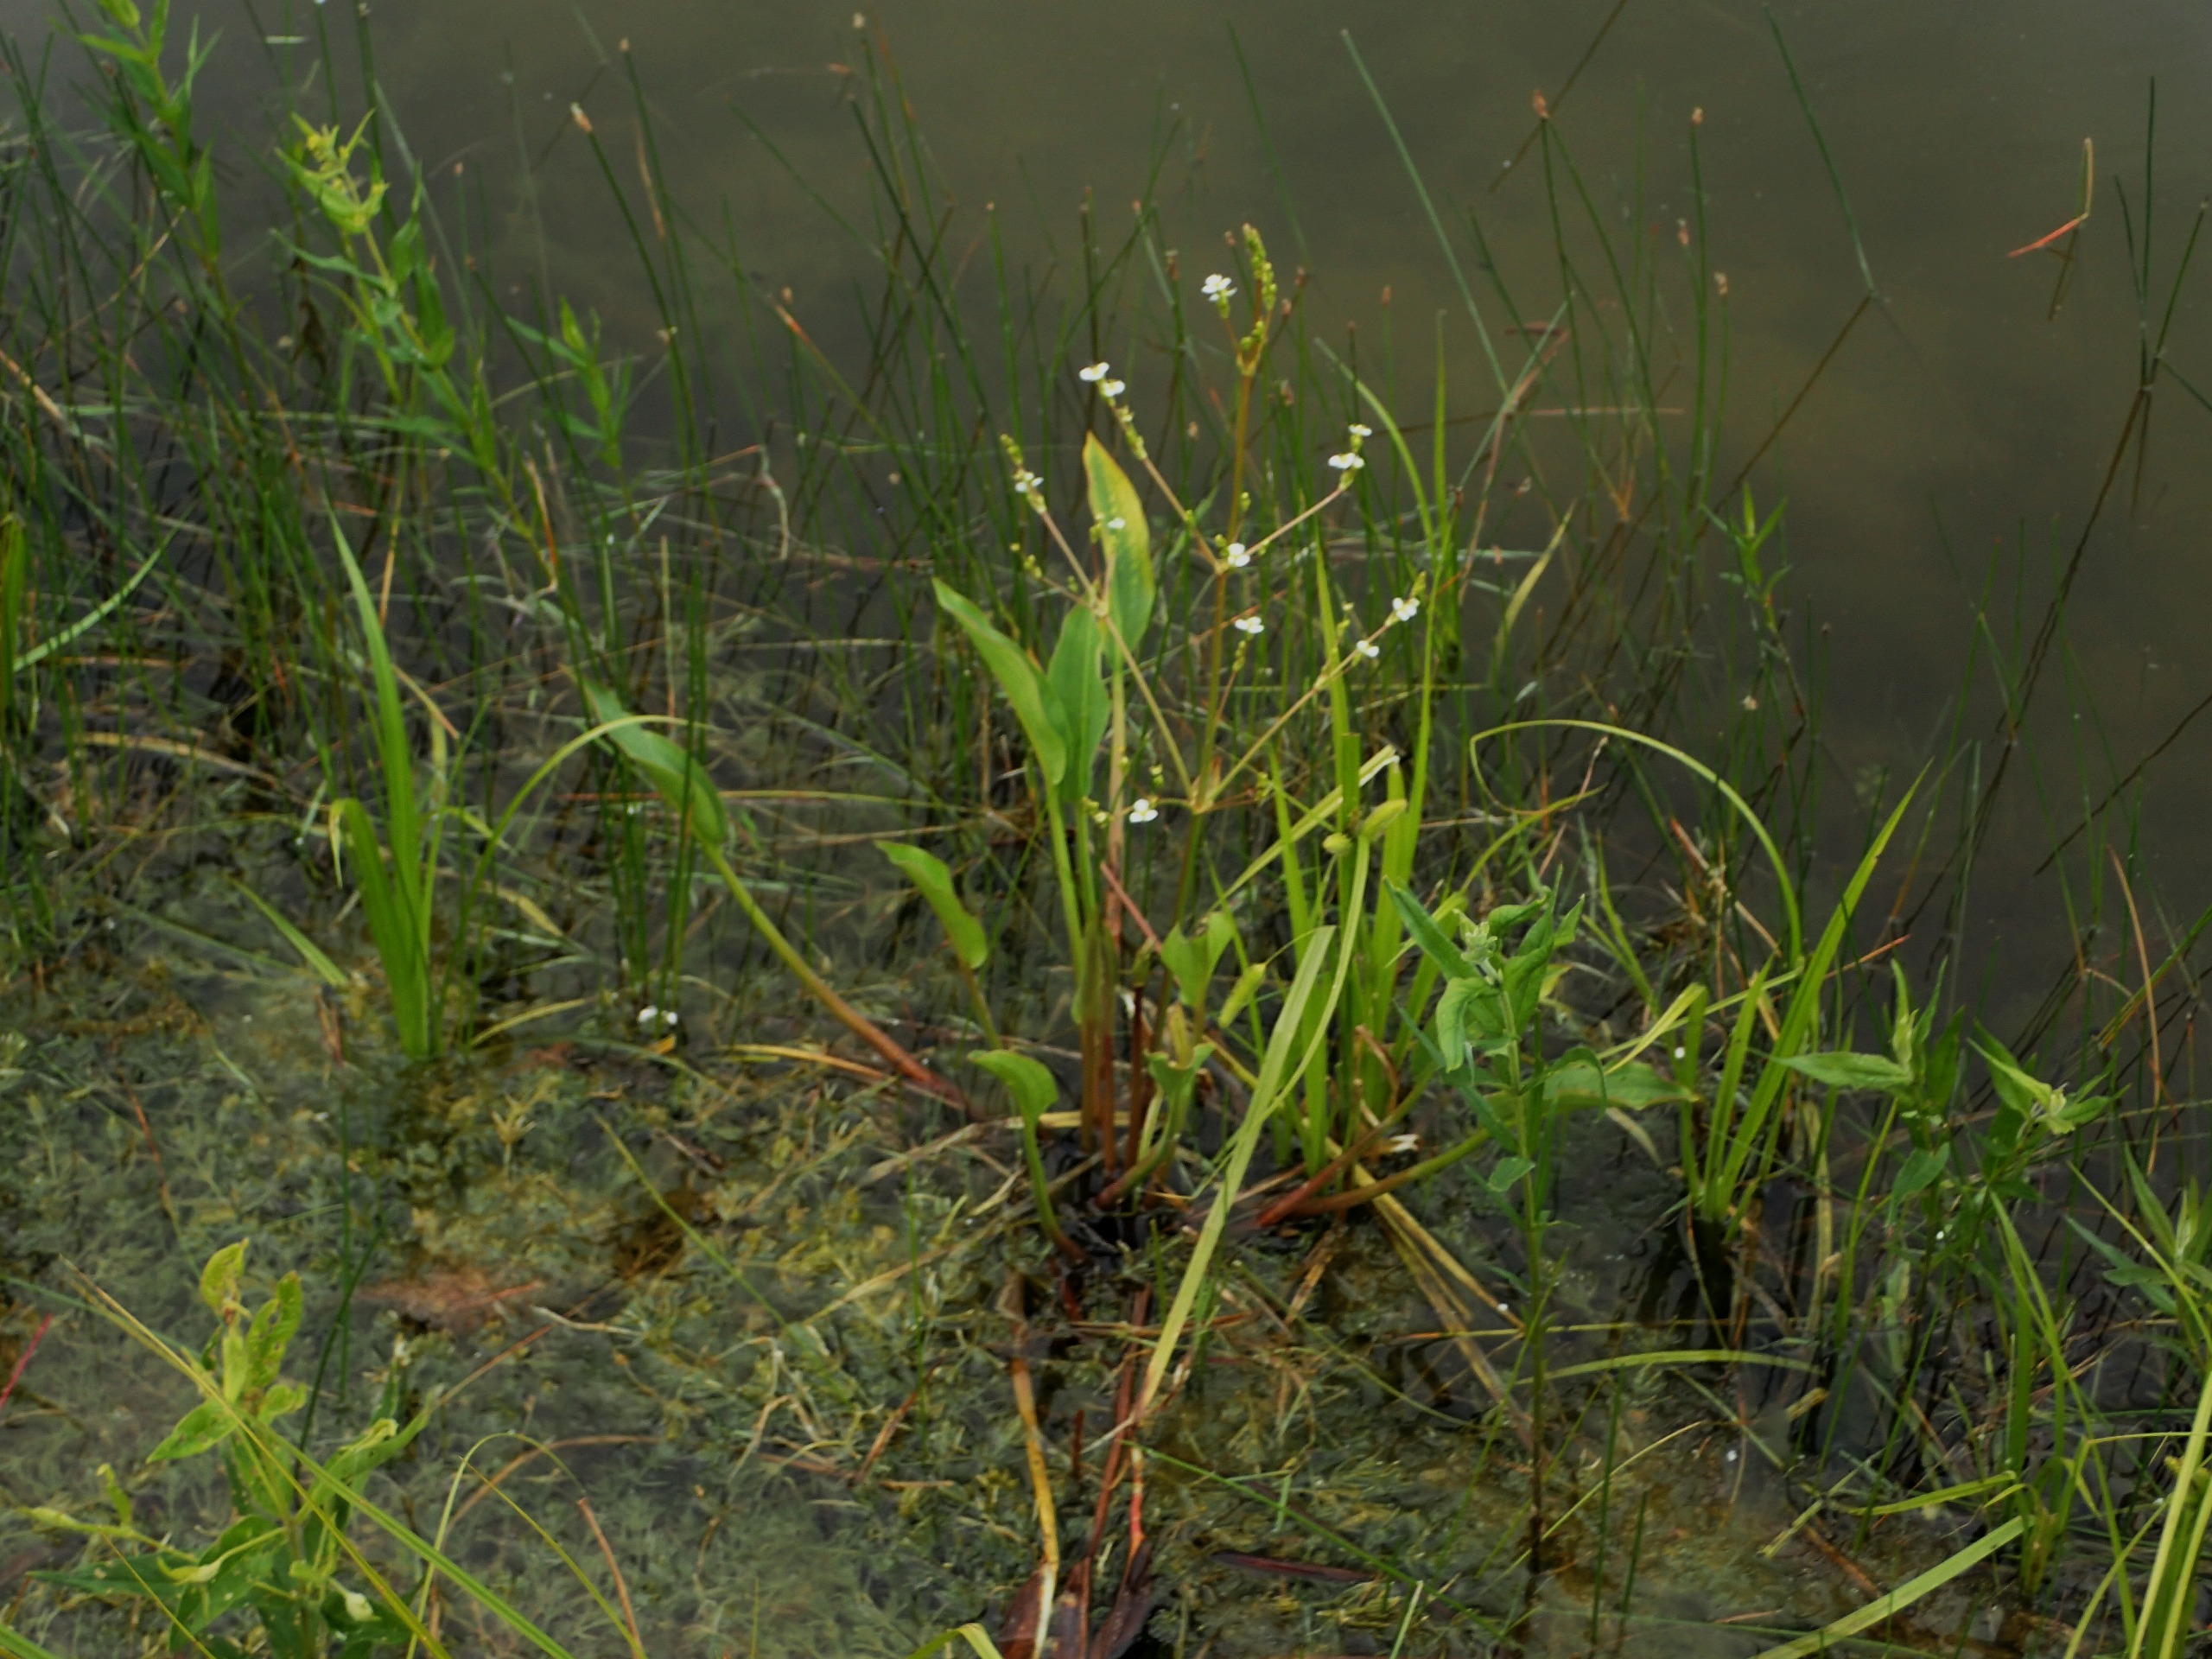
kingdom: Plantae
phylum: Tracheophyta
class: Liliopsida
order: Alismatales
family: Alismataceae
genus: Alisma
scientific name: Alisma plantago-aquatica
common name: Vejbred-skeblad
